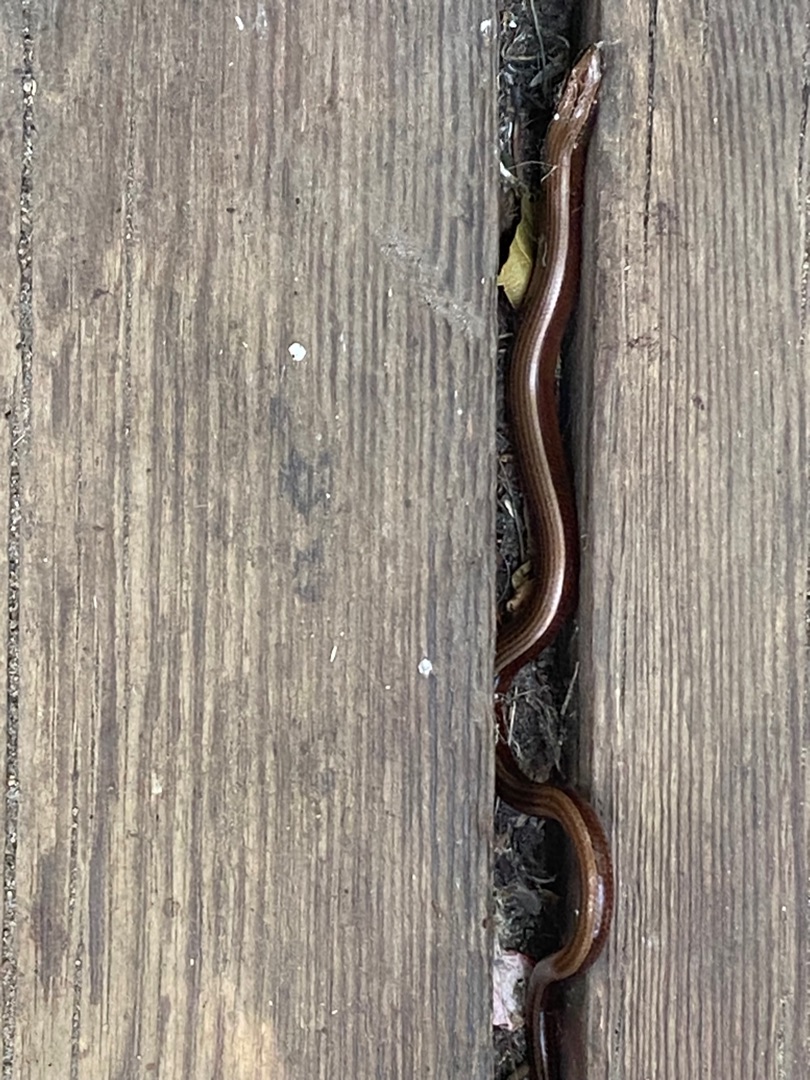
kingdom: Animalia
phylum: Chordata
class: Squamata
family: Anguidae
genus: Anguis
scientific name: Anguis fragilis
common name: Stålorm
